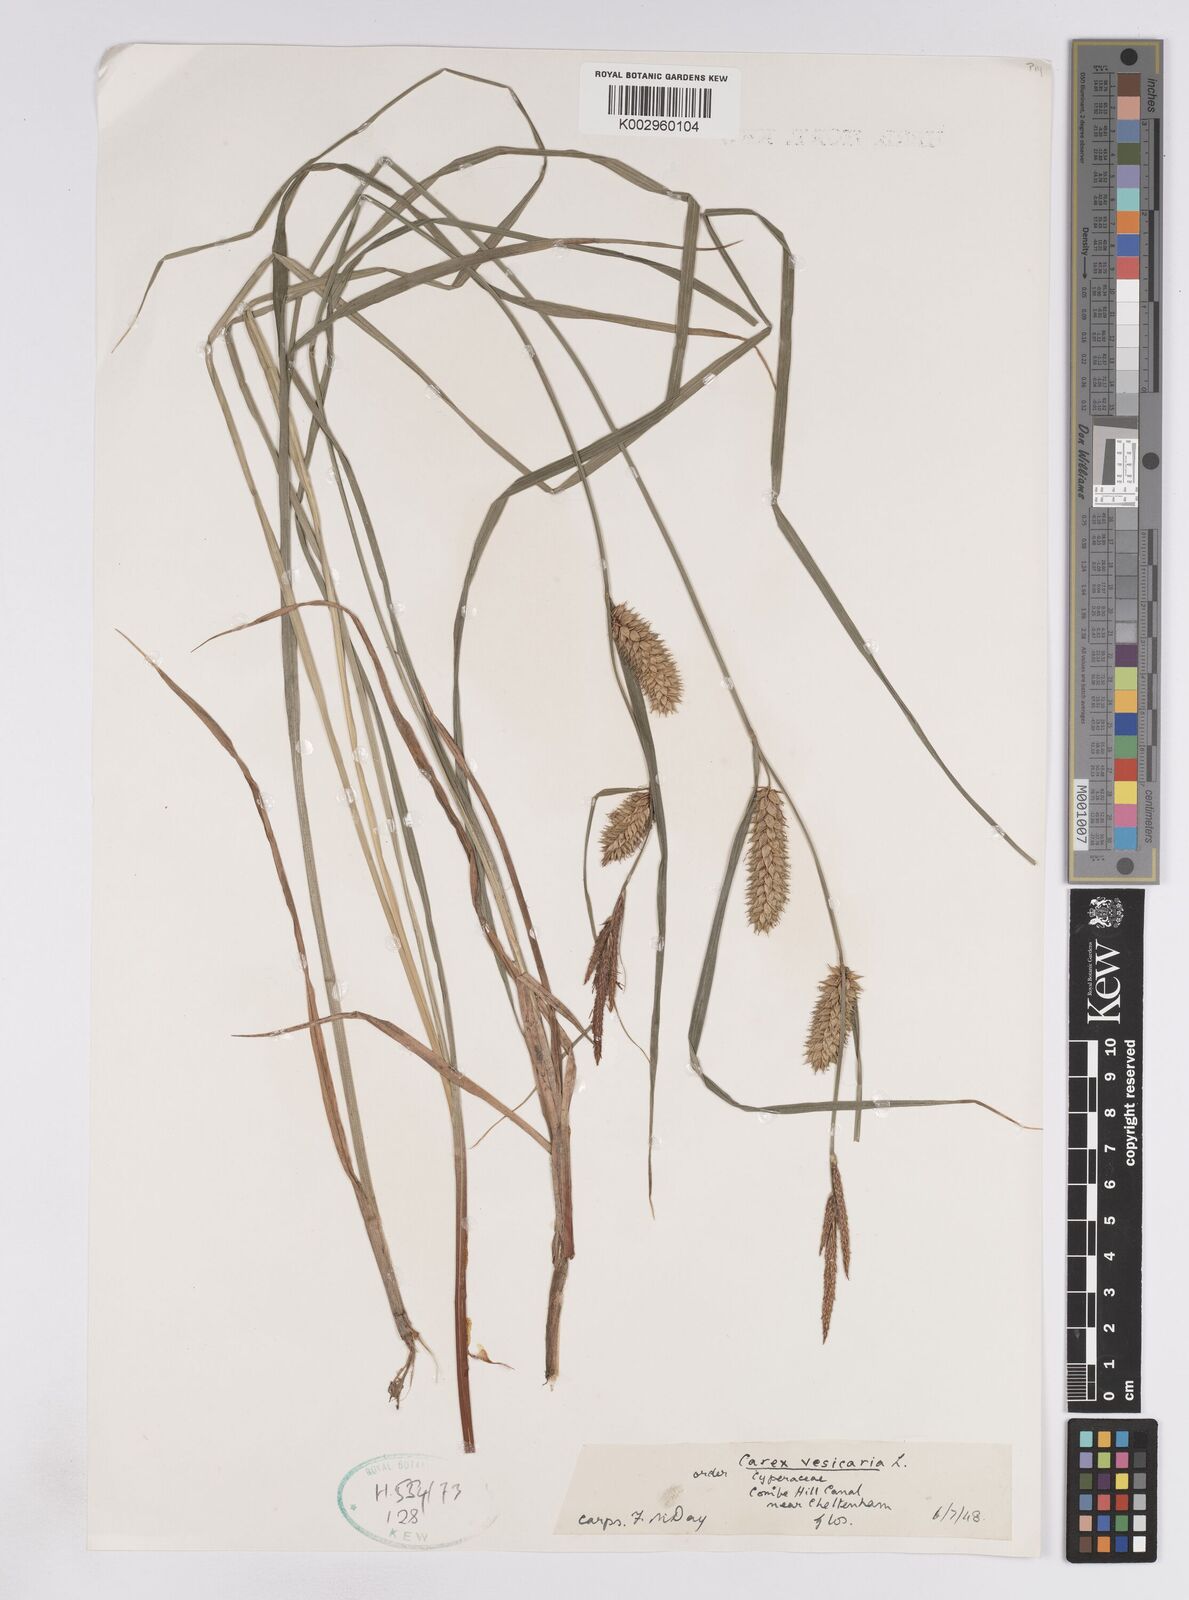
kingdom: Plantae
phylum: Tracheophyta
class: Liliopsida
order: Poales
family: Cyperaceae
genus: Carex
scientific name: Carex vesicaria
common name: Bladder-sedge
